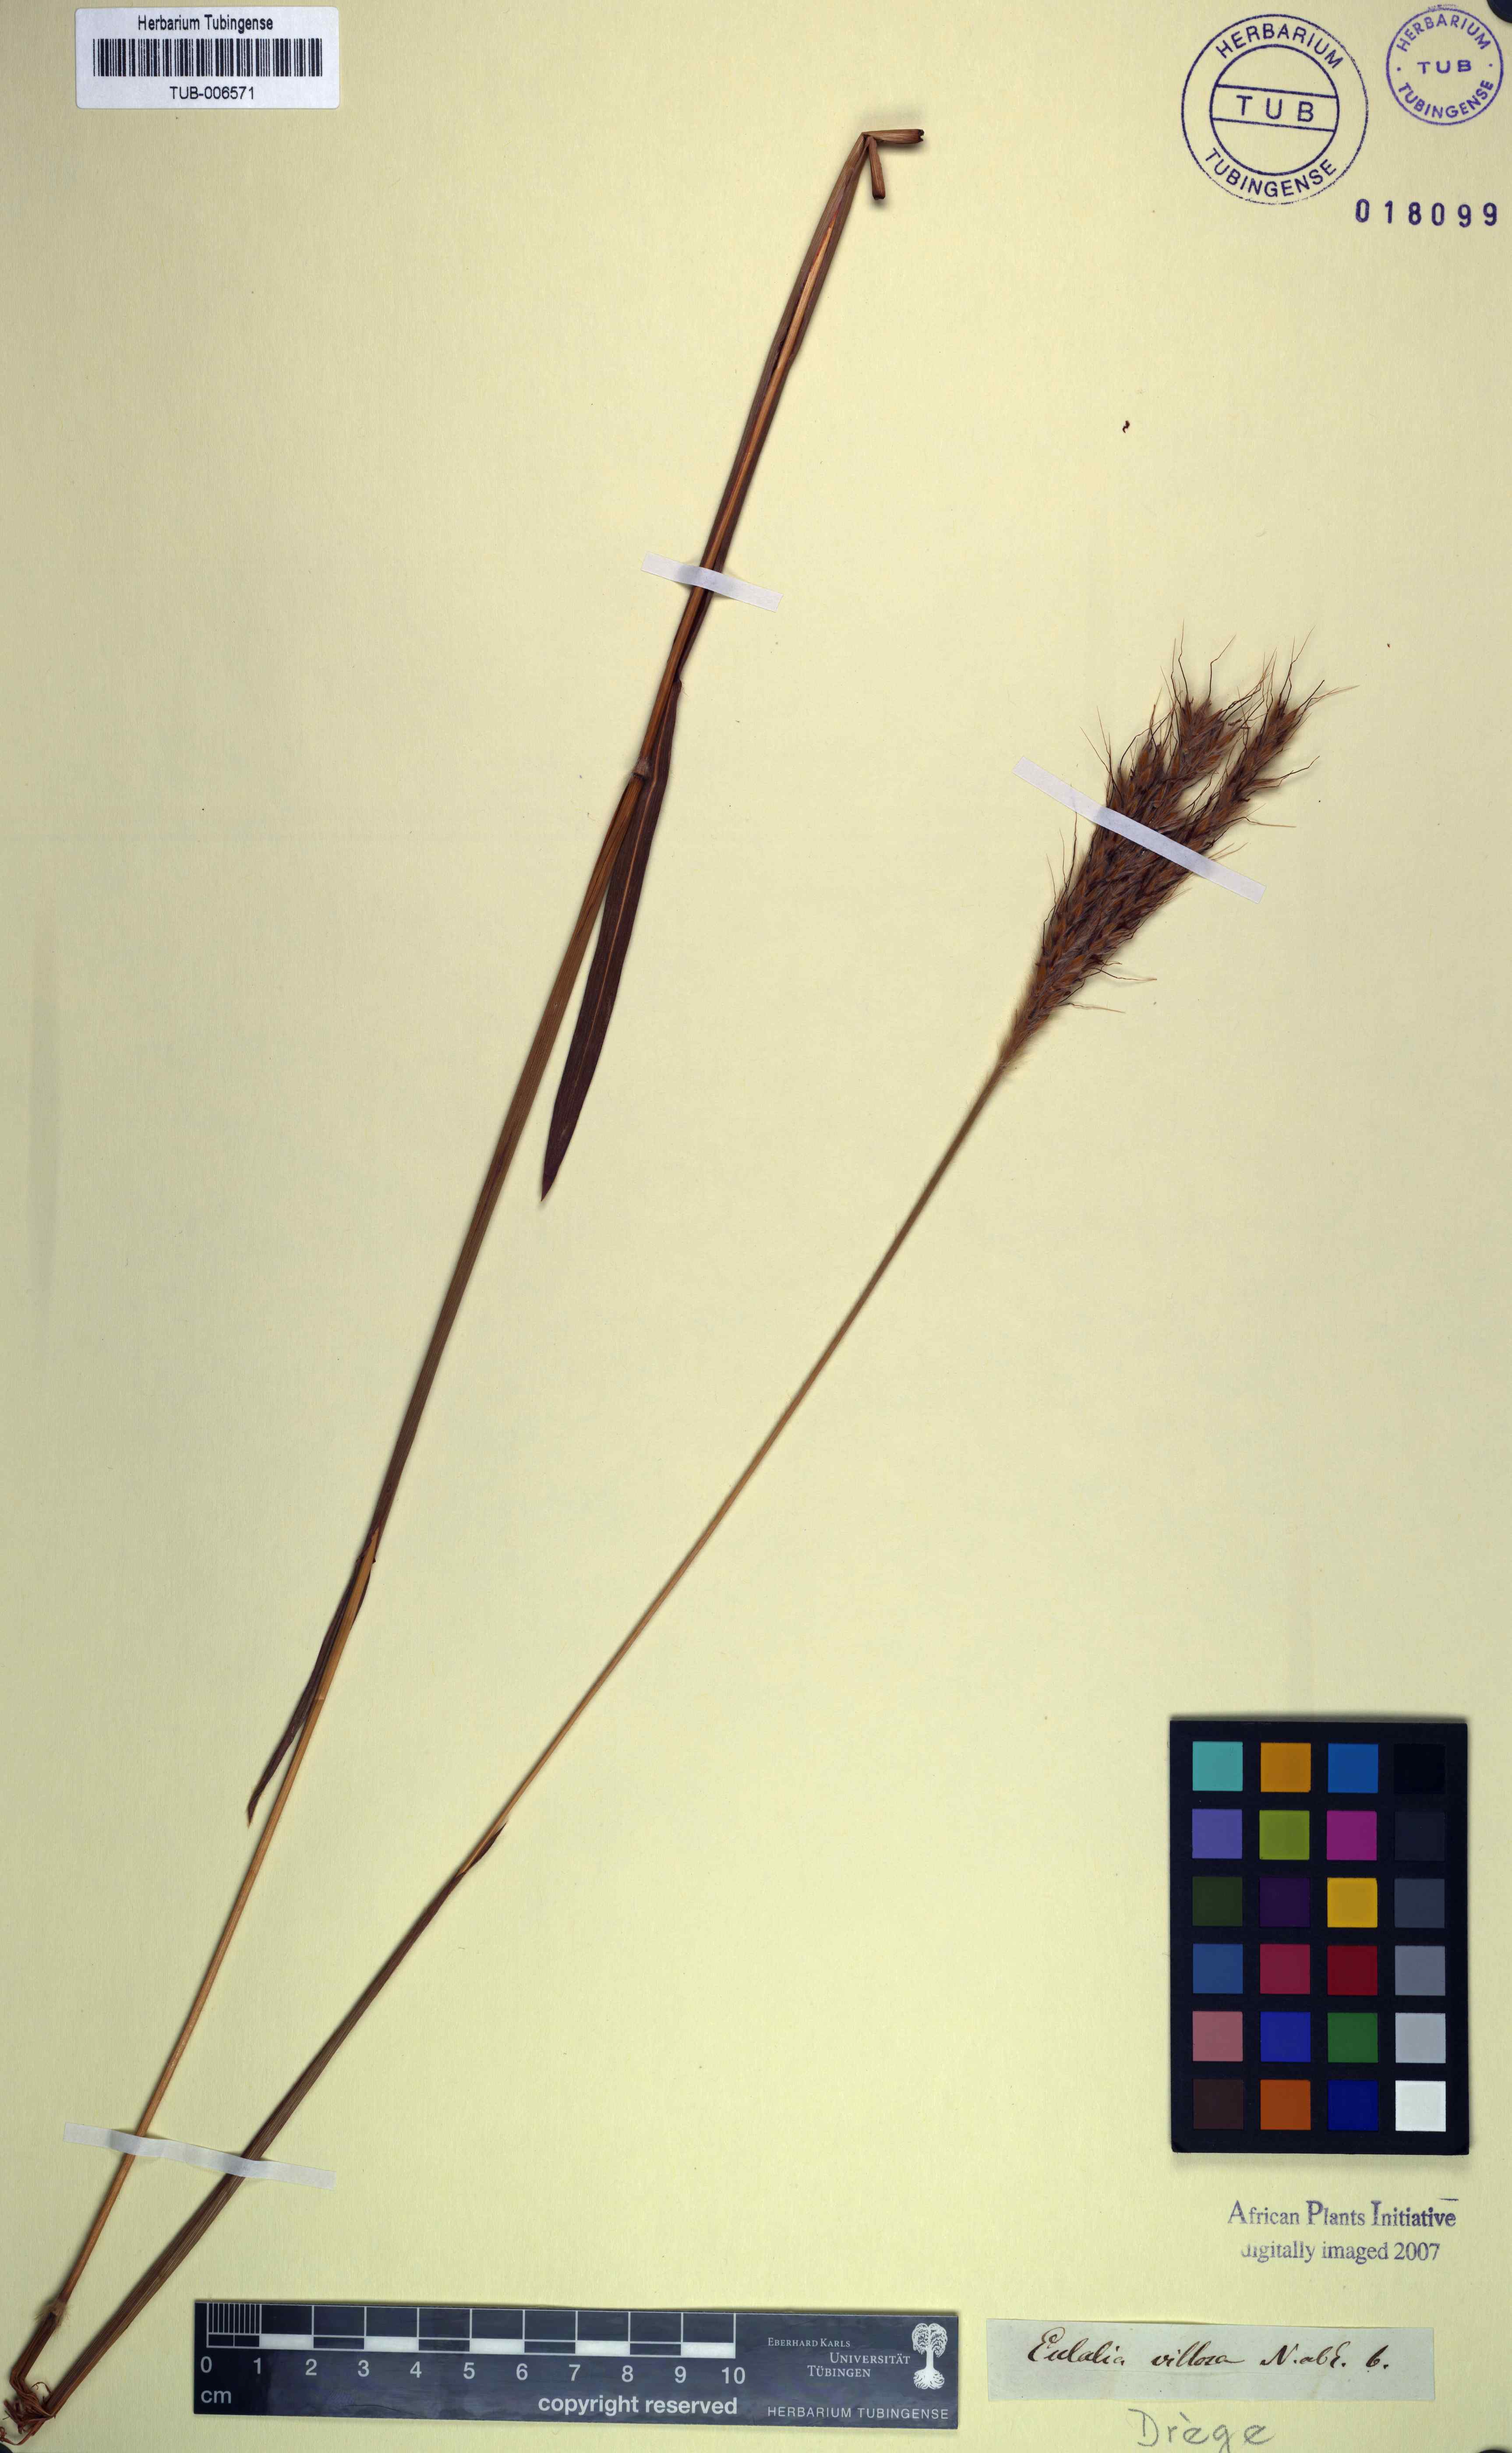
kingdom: Plantae
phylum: Tracheophyta
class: Liliopsida
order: Poales
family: Poaceae
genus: Eulalia
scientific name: Eulalia villosa
